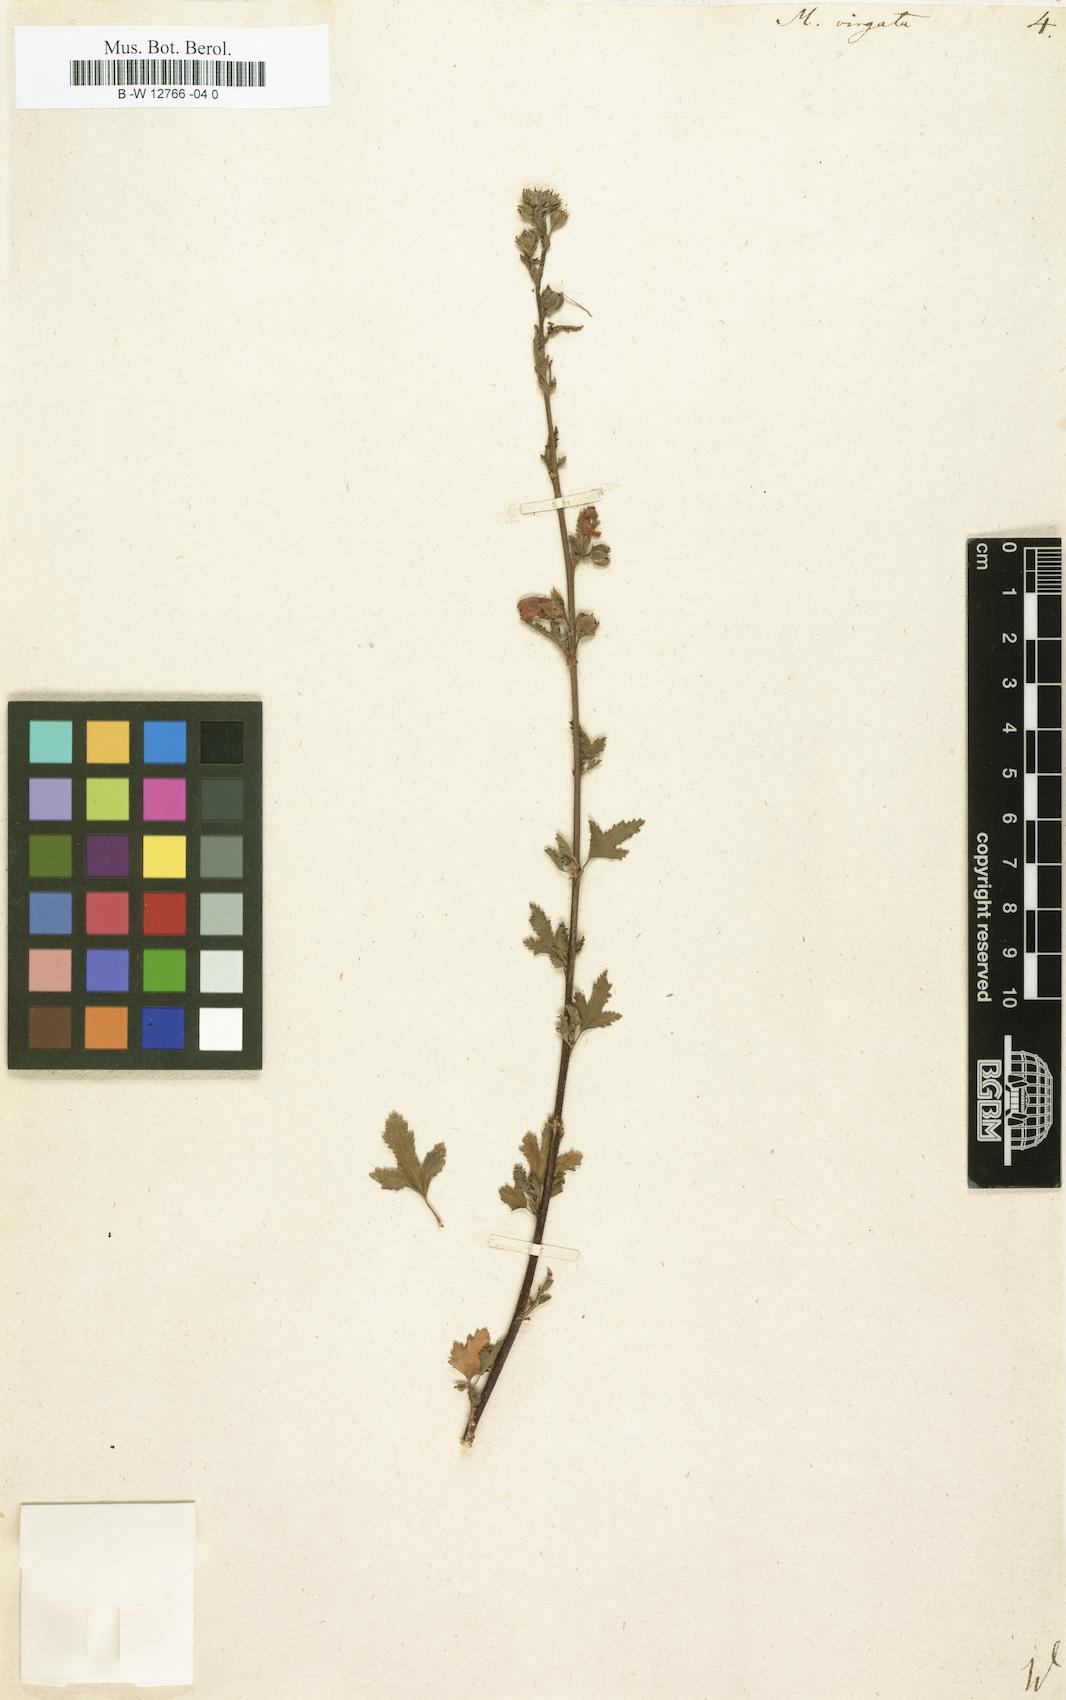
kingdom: Plantae
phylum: Tracheophyta
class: Magnoliopsida
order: Malvales
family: Malvaceae
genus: Anisodontea
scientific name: Anisodontea
